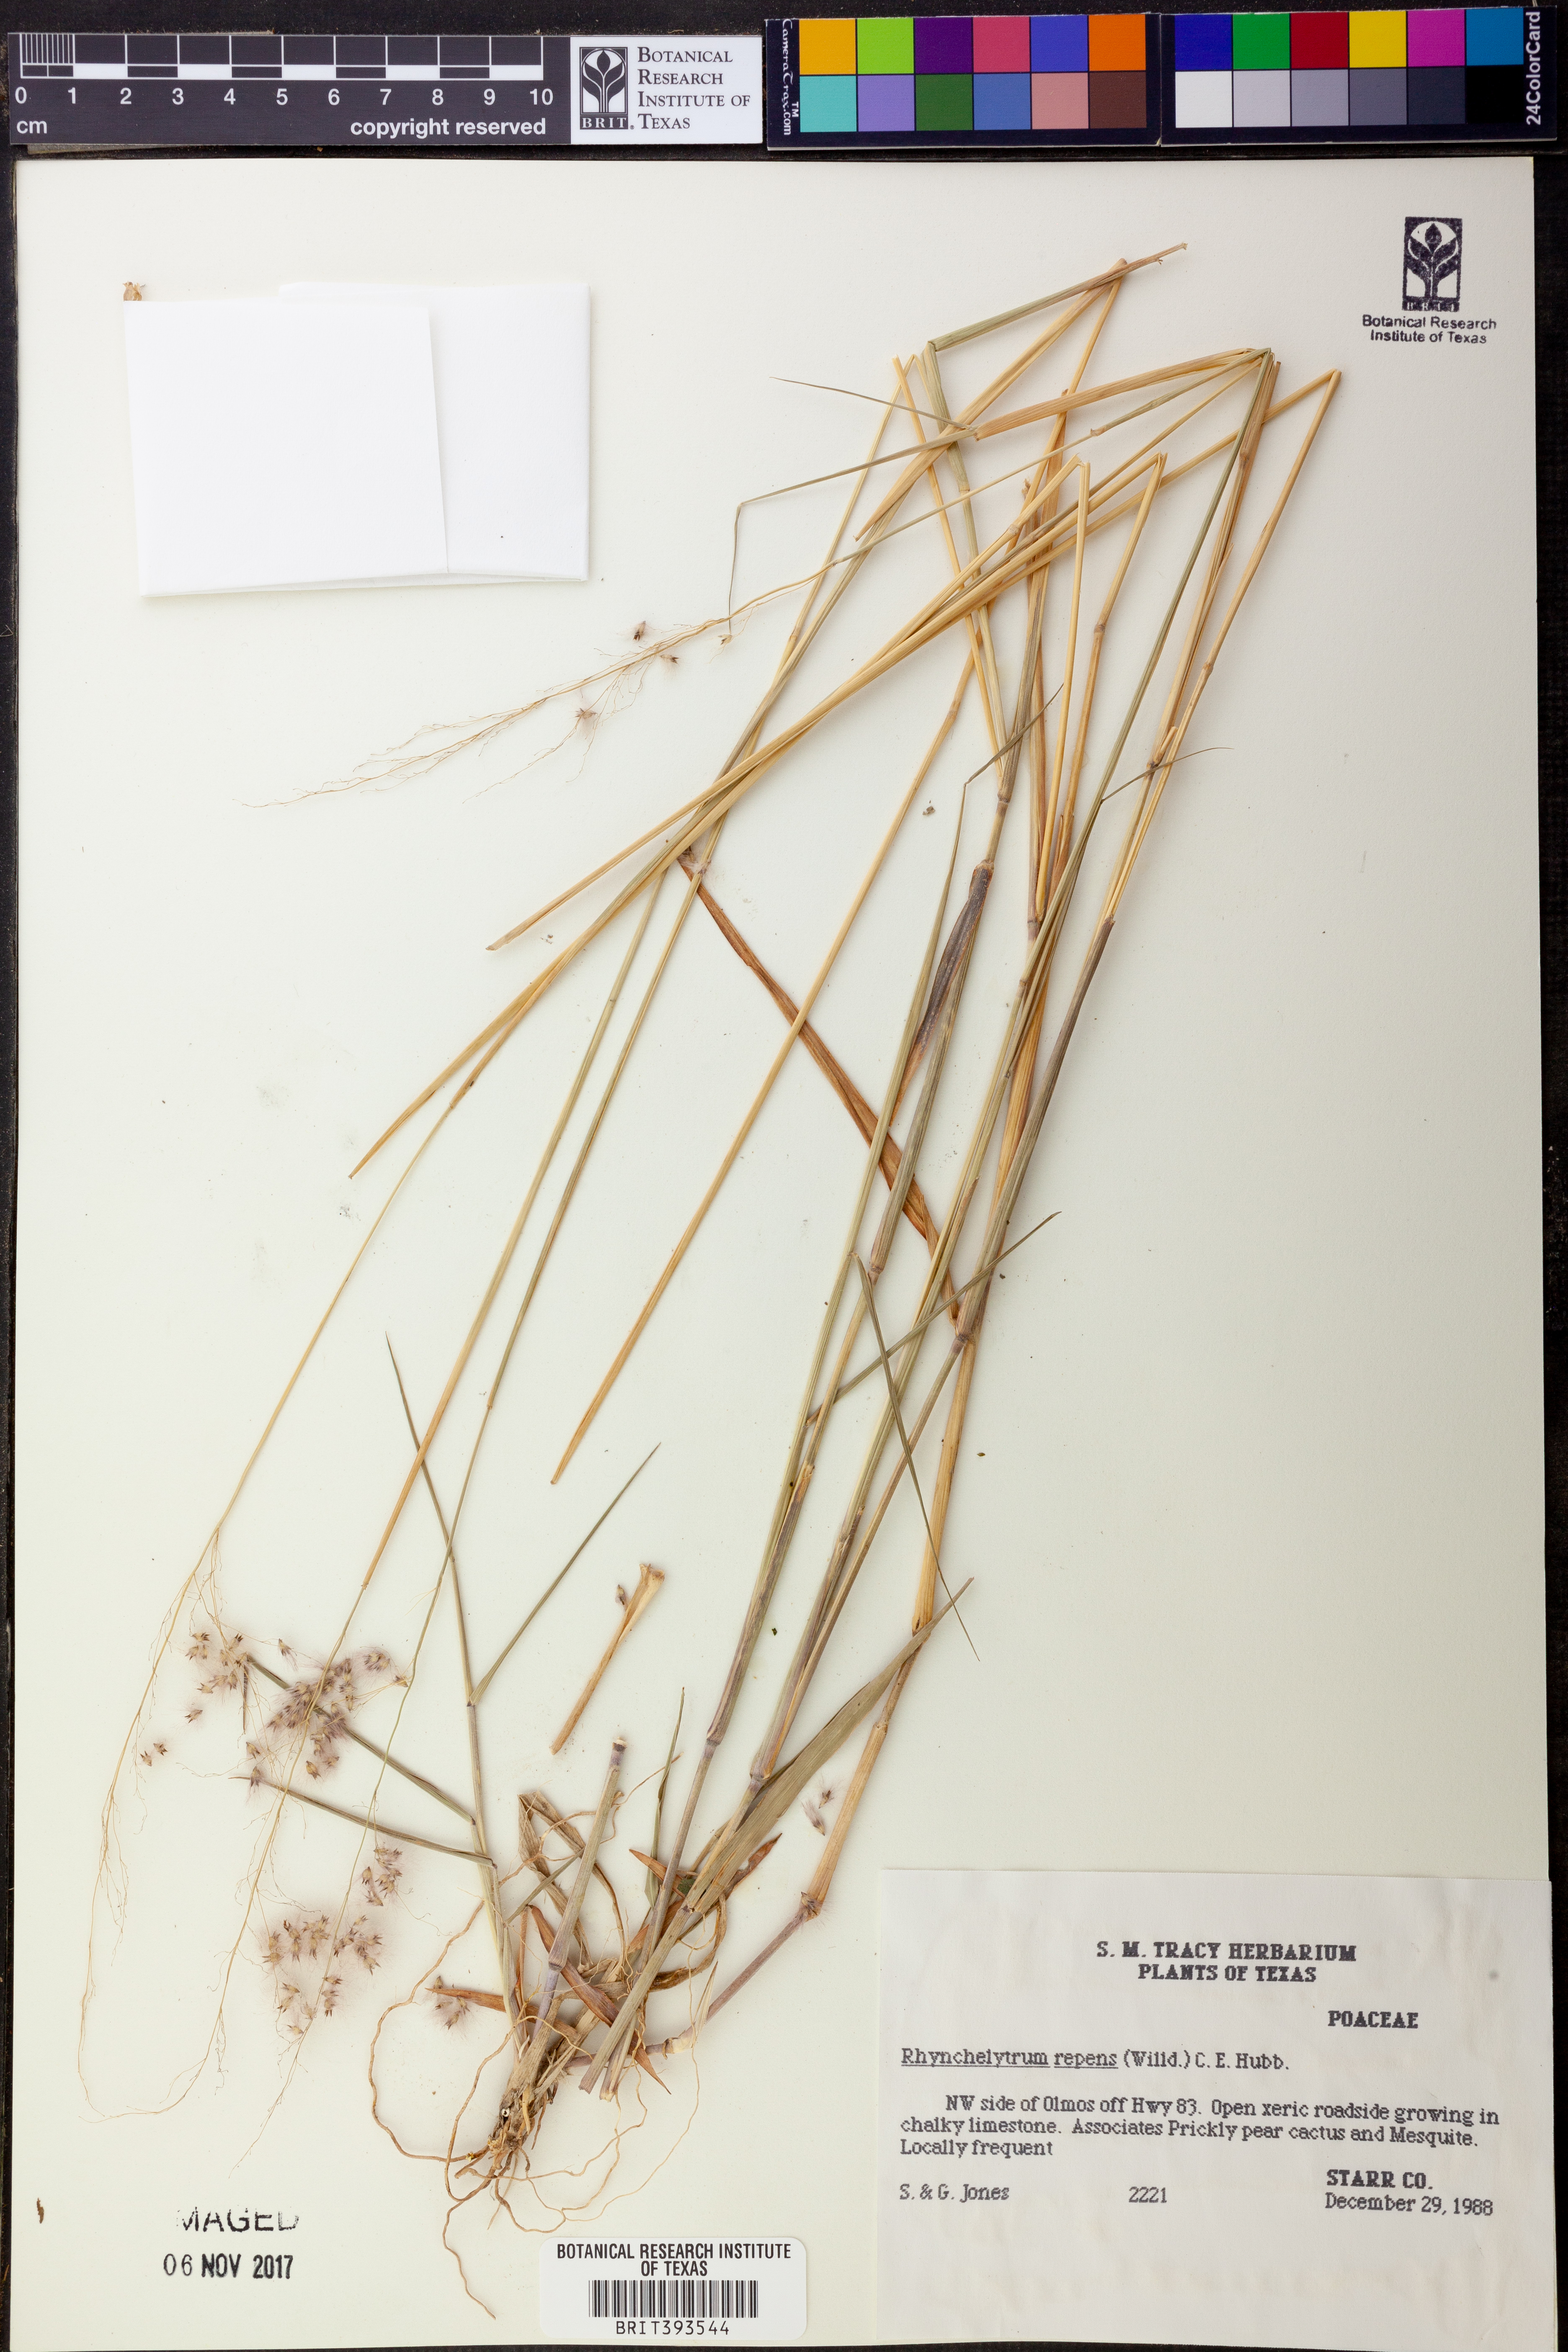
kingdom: Plantae
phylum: Tracheophyta
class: Liliopsida
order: Poales
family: Poaceae
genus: Melinis
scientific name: Melinis repens
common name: Rose natal grass
